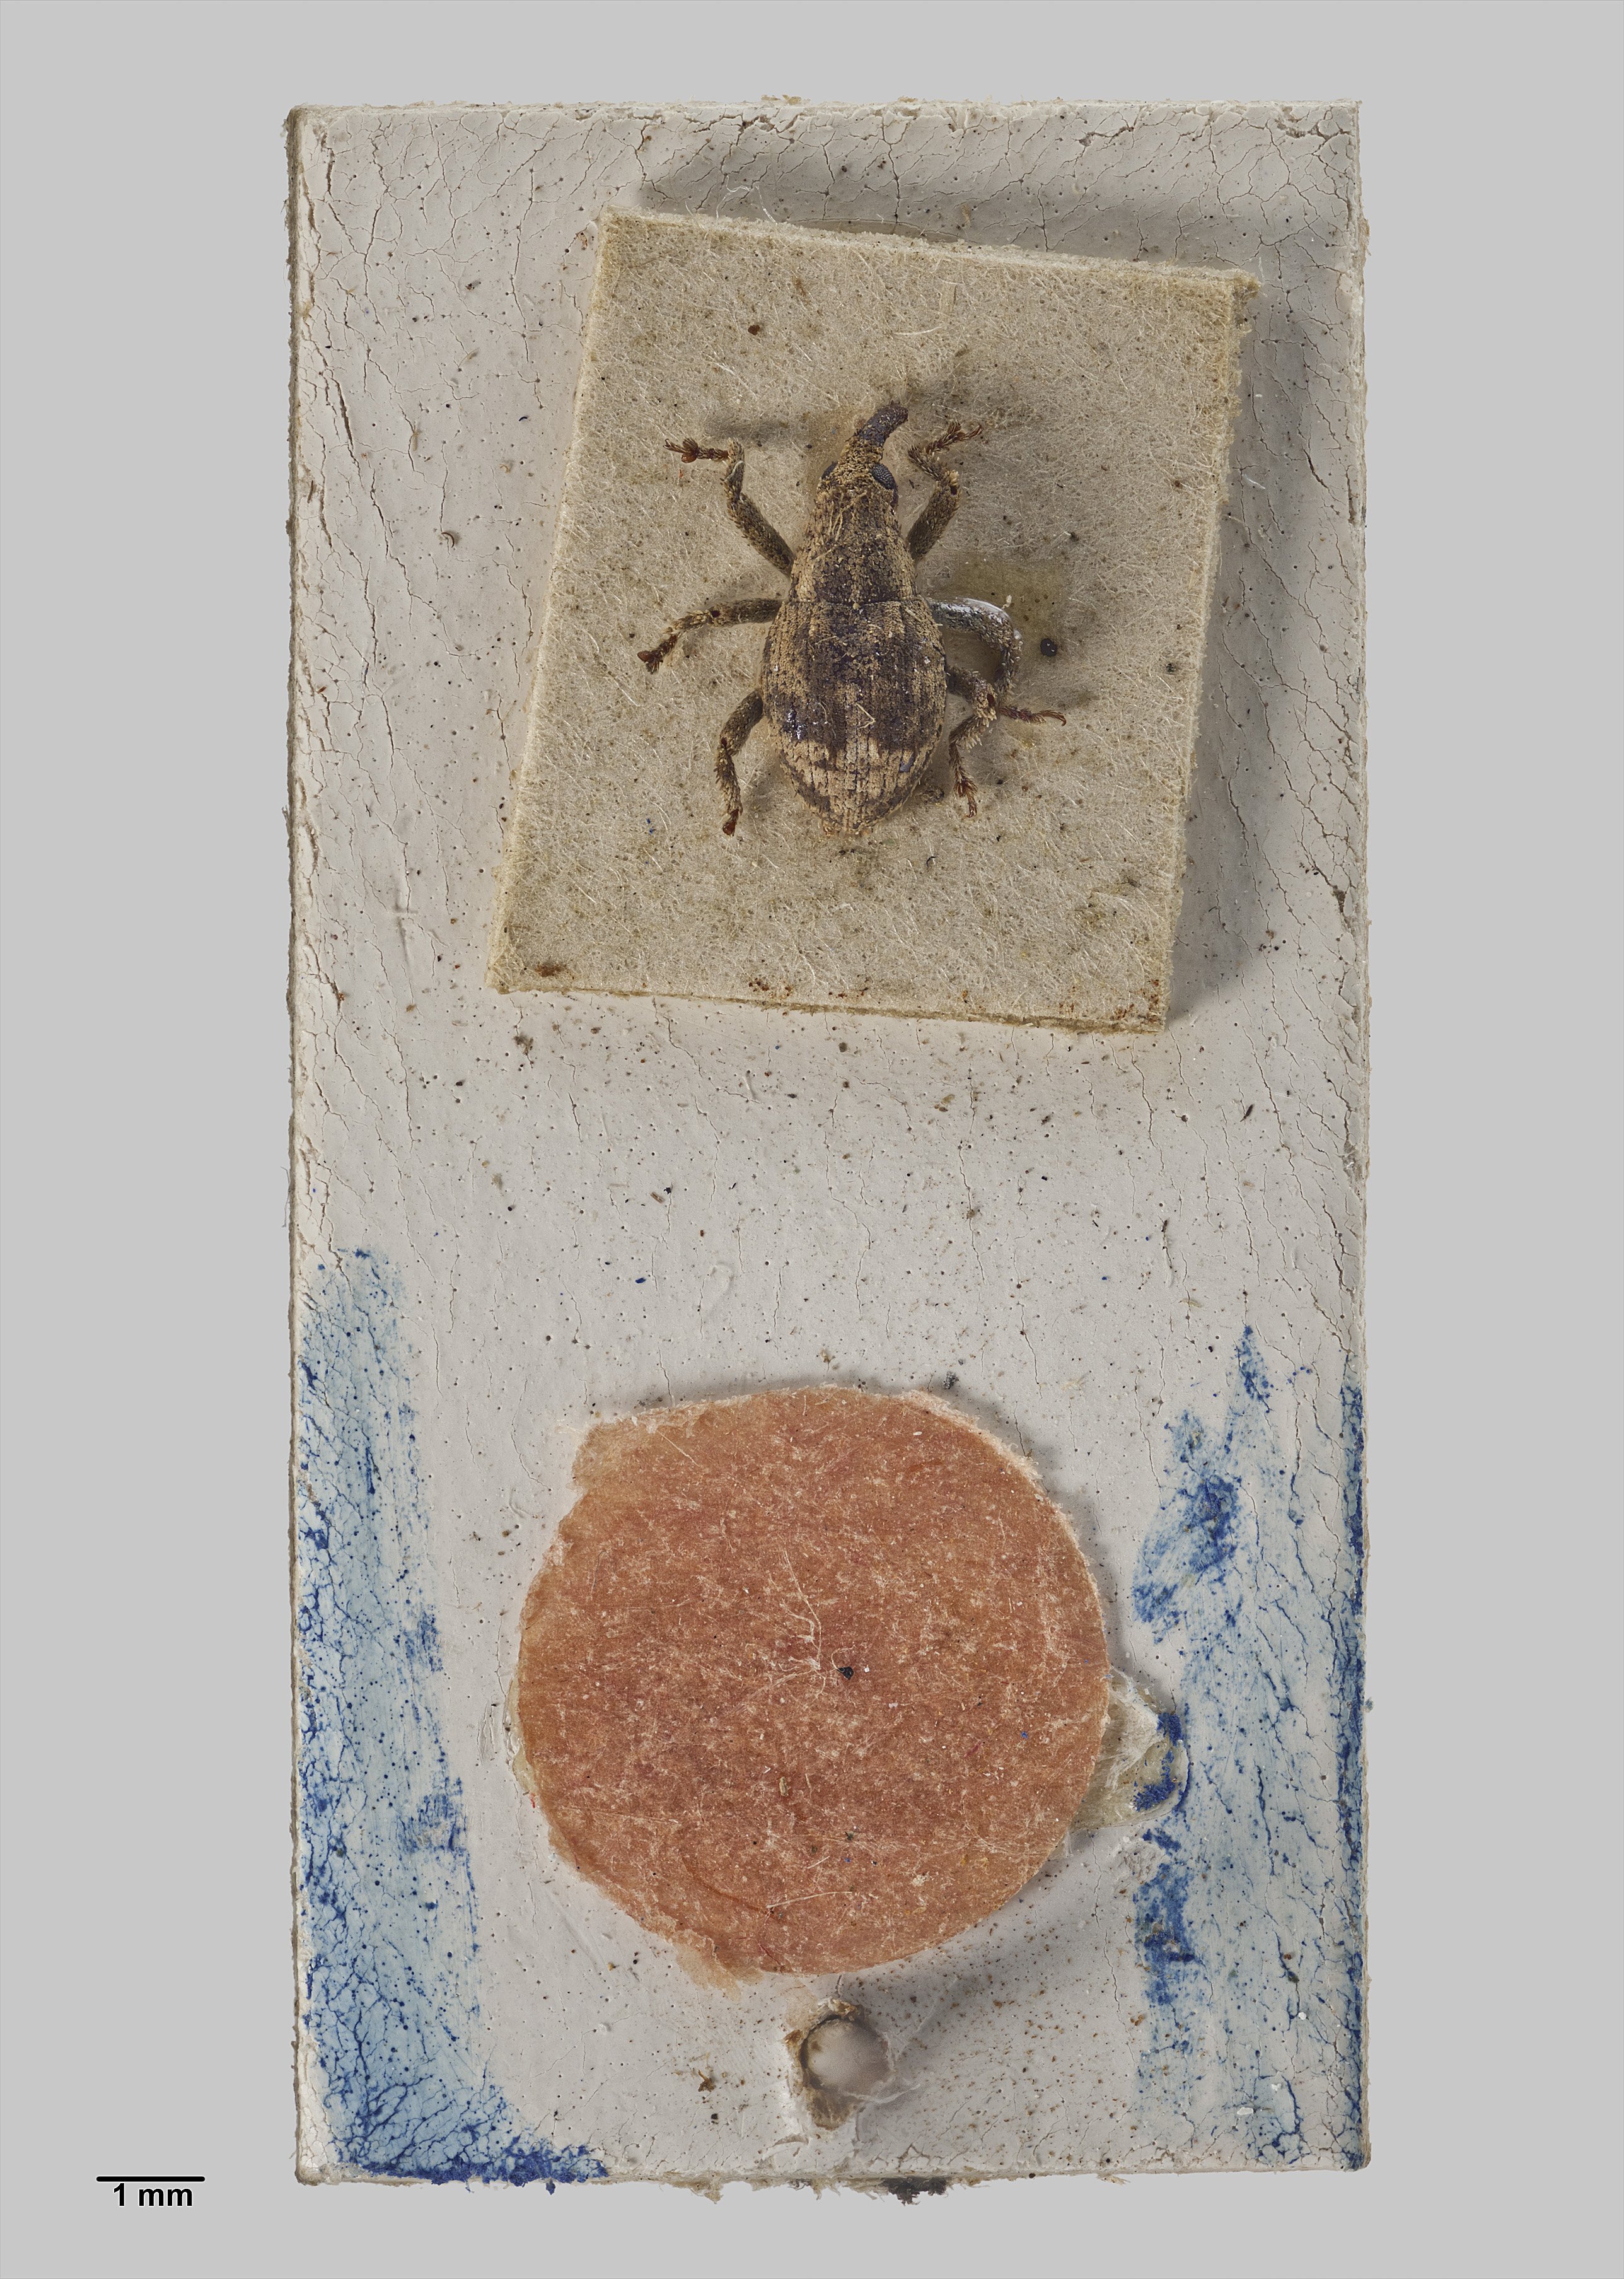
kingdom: Animalia
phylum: Arthropoda
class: Insecta
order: Coleoptera
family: Curculionidae
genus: Didymus
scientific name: Didymus metrosideri
